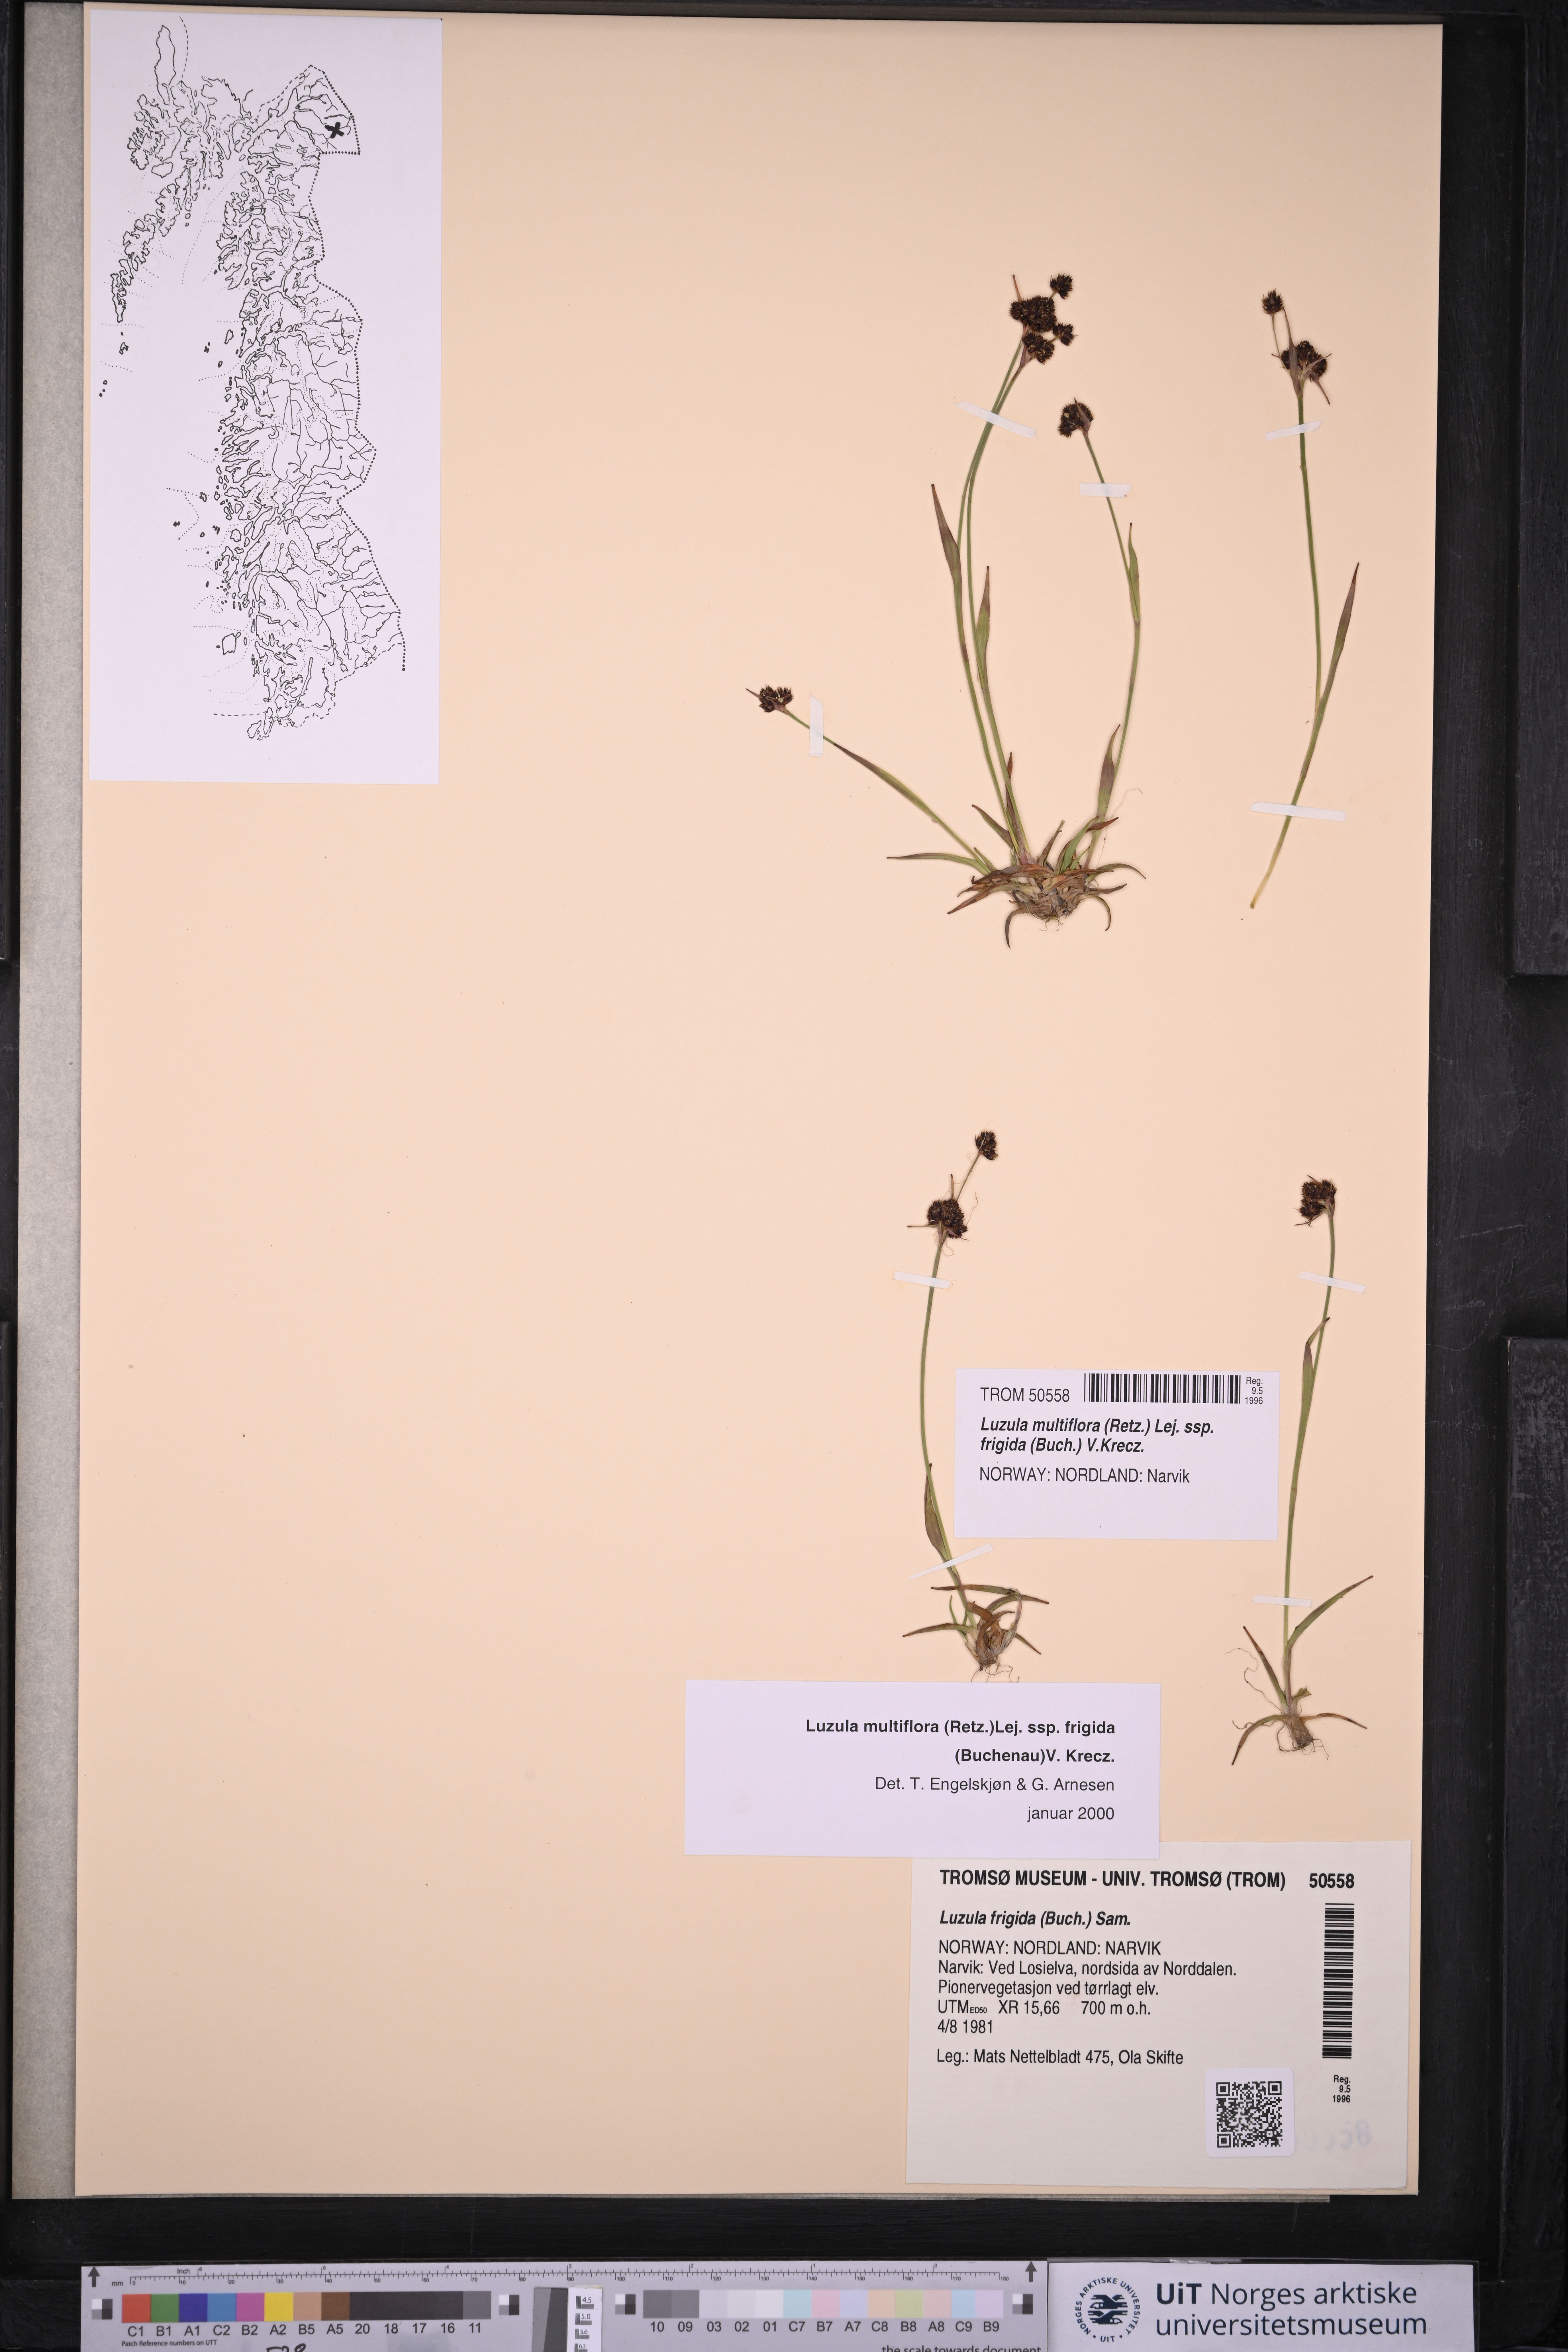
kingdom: Plantae
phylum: Tracheophyta
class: Liliopsida
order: Poales
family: Juncaceae
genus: Luzula
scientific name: Luzula multiflora
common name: Heath wood-rush
